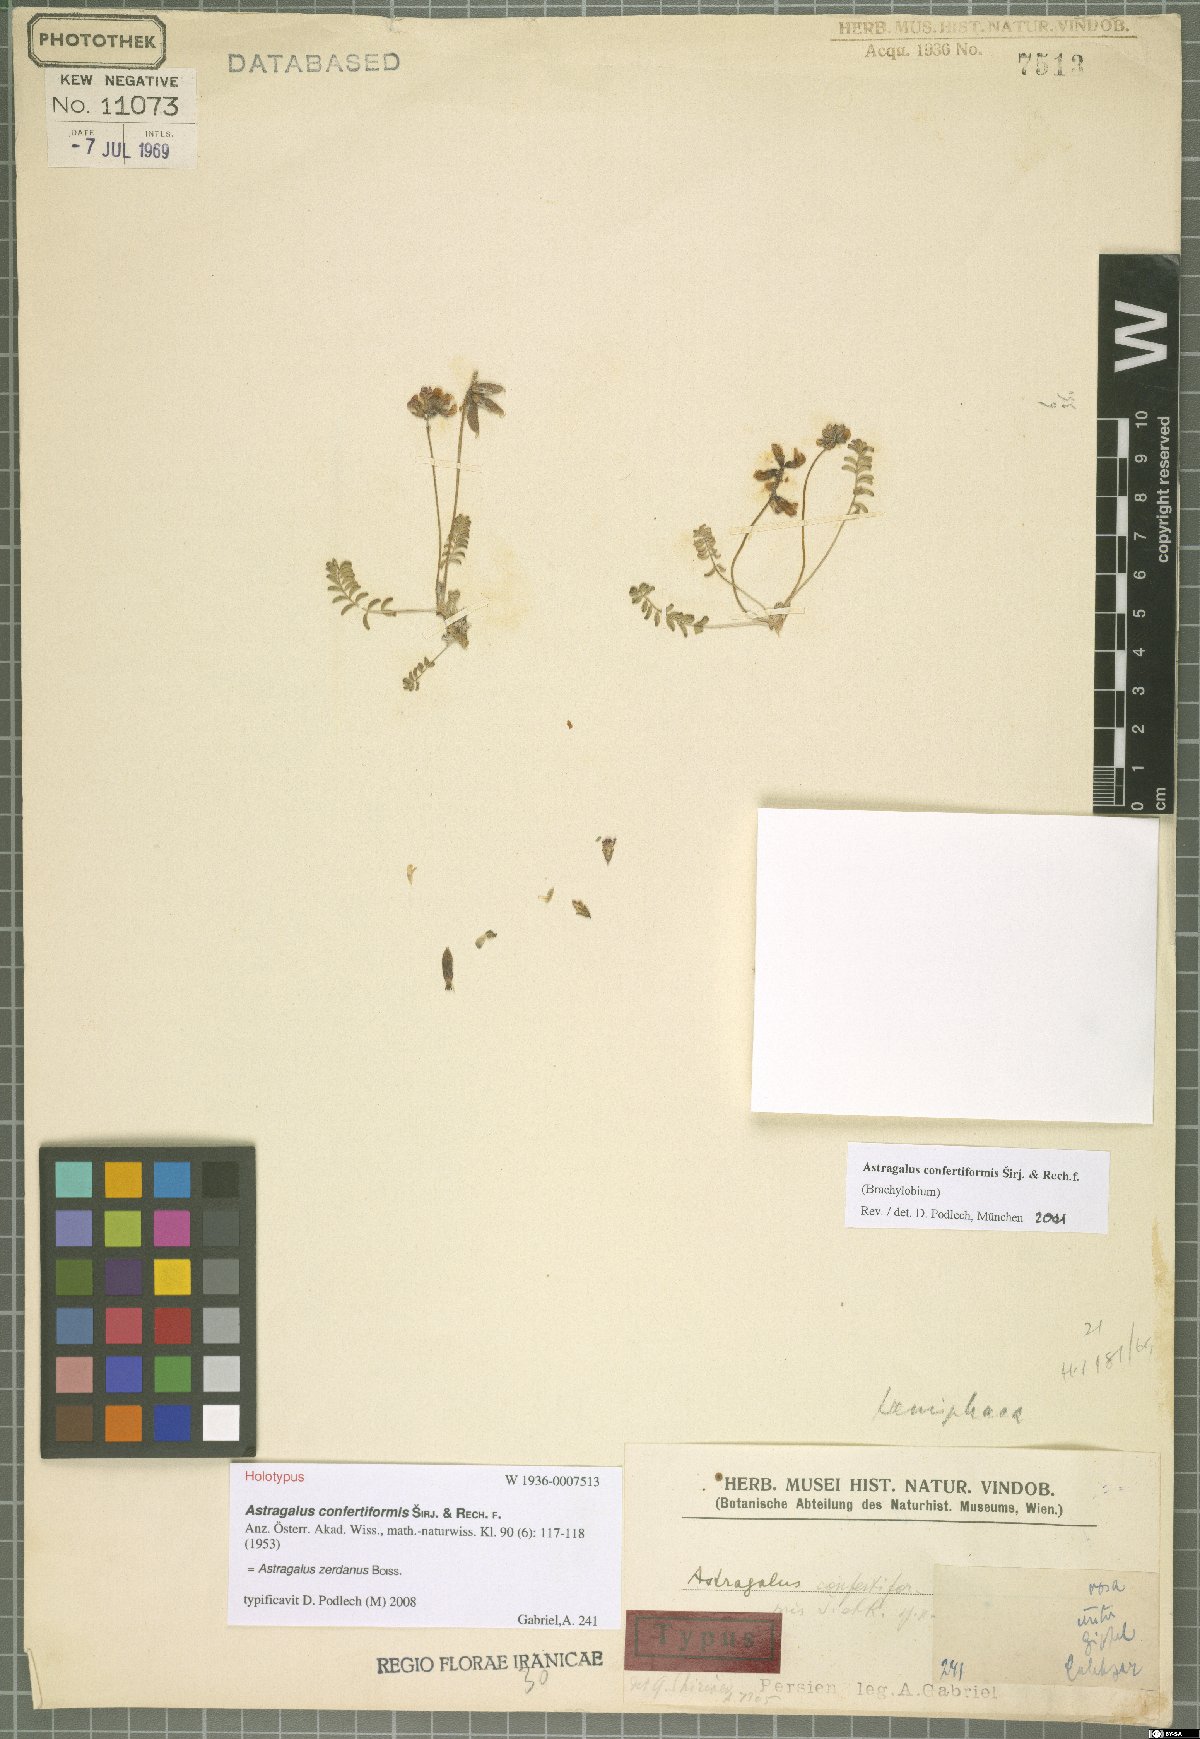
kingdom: Plantae
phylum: Tracheophyta
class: Magnoliopsida
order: Fabales
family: Fabaceae
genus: Astragalus
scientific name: Astragalus confertiformis
